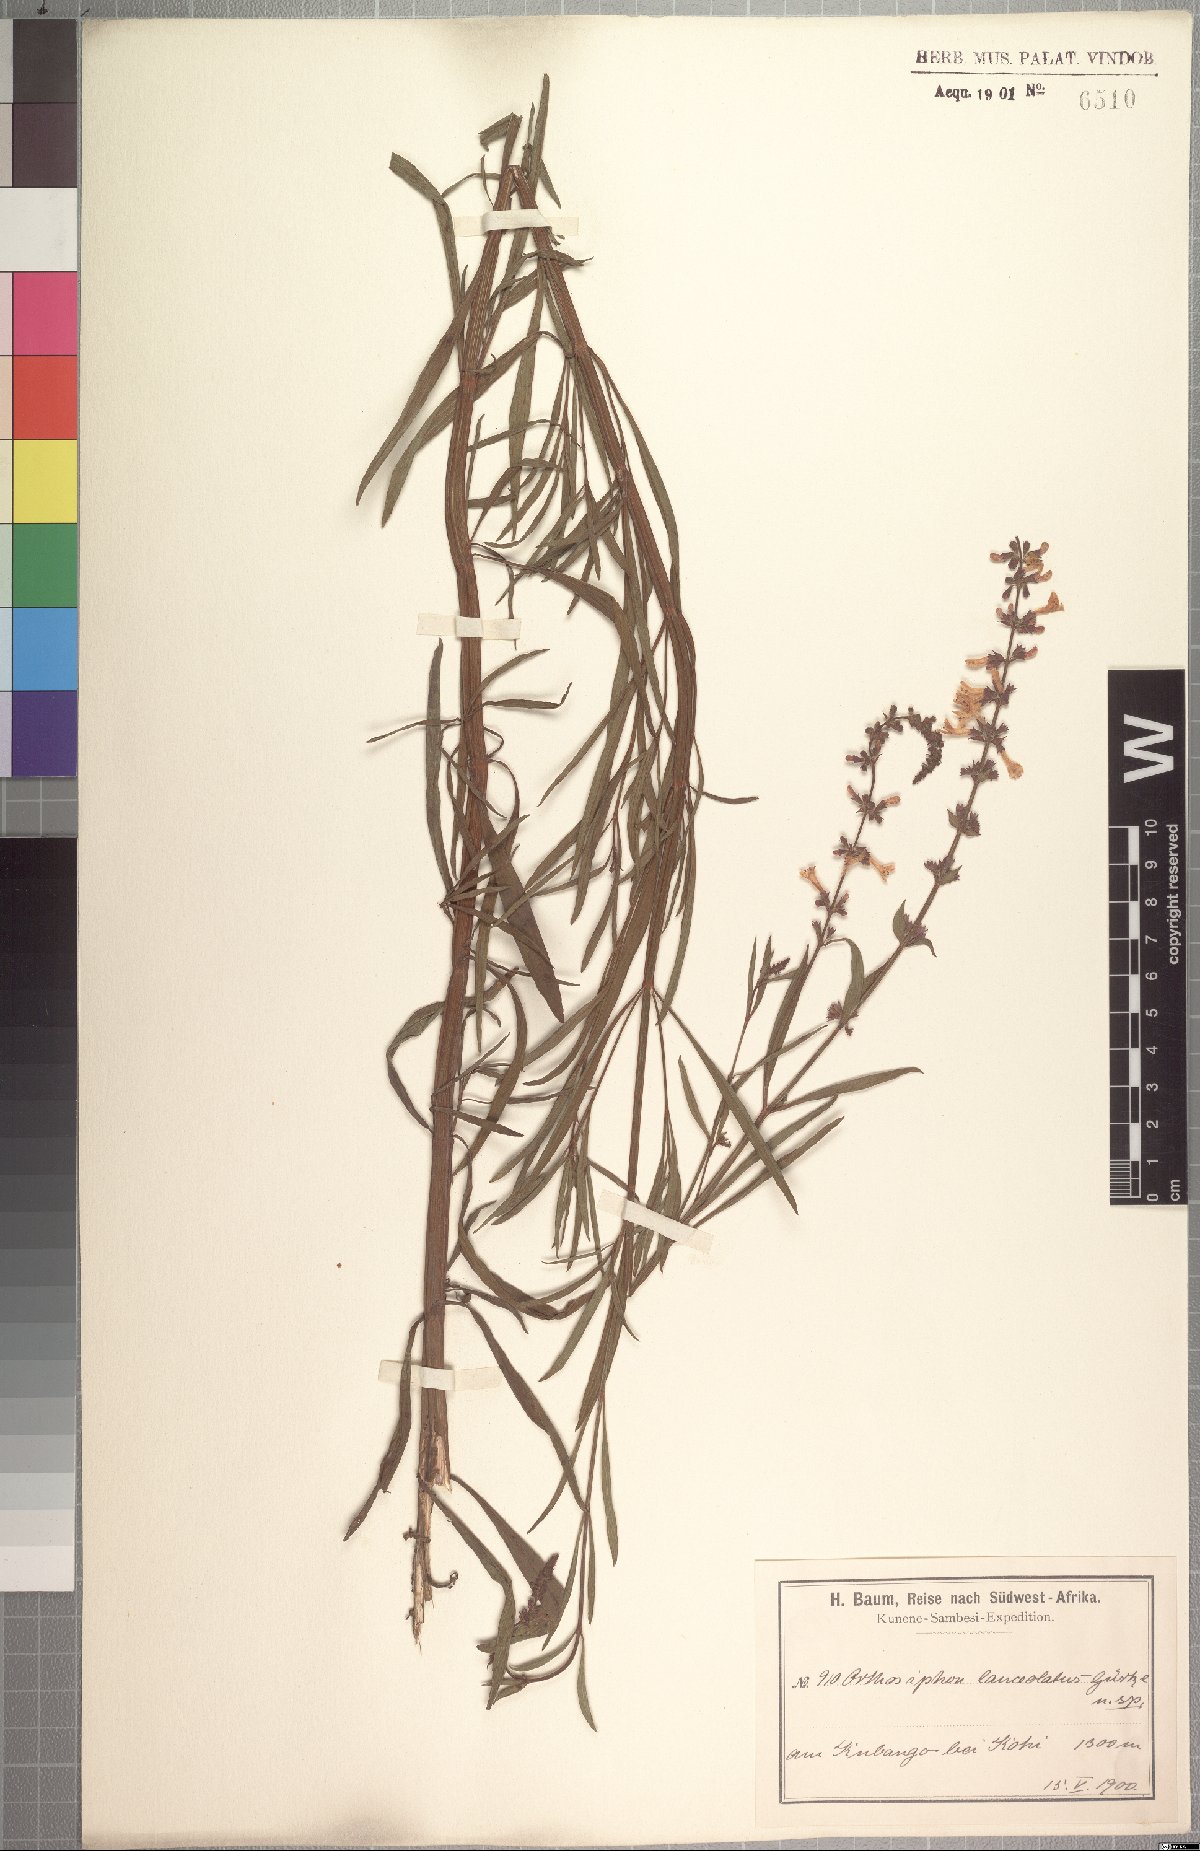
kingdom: Plantae
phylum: Tracheophyta
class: Magnoliopsida
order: Lamiales
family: Lamiaceae
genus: Benguellia
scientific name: Benguellia lanceolata
